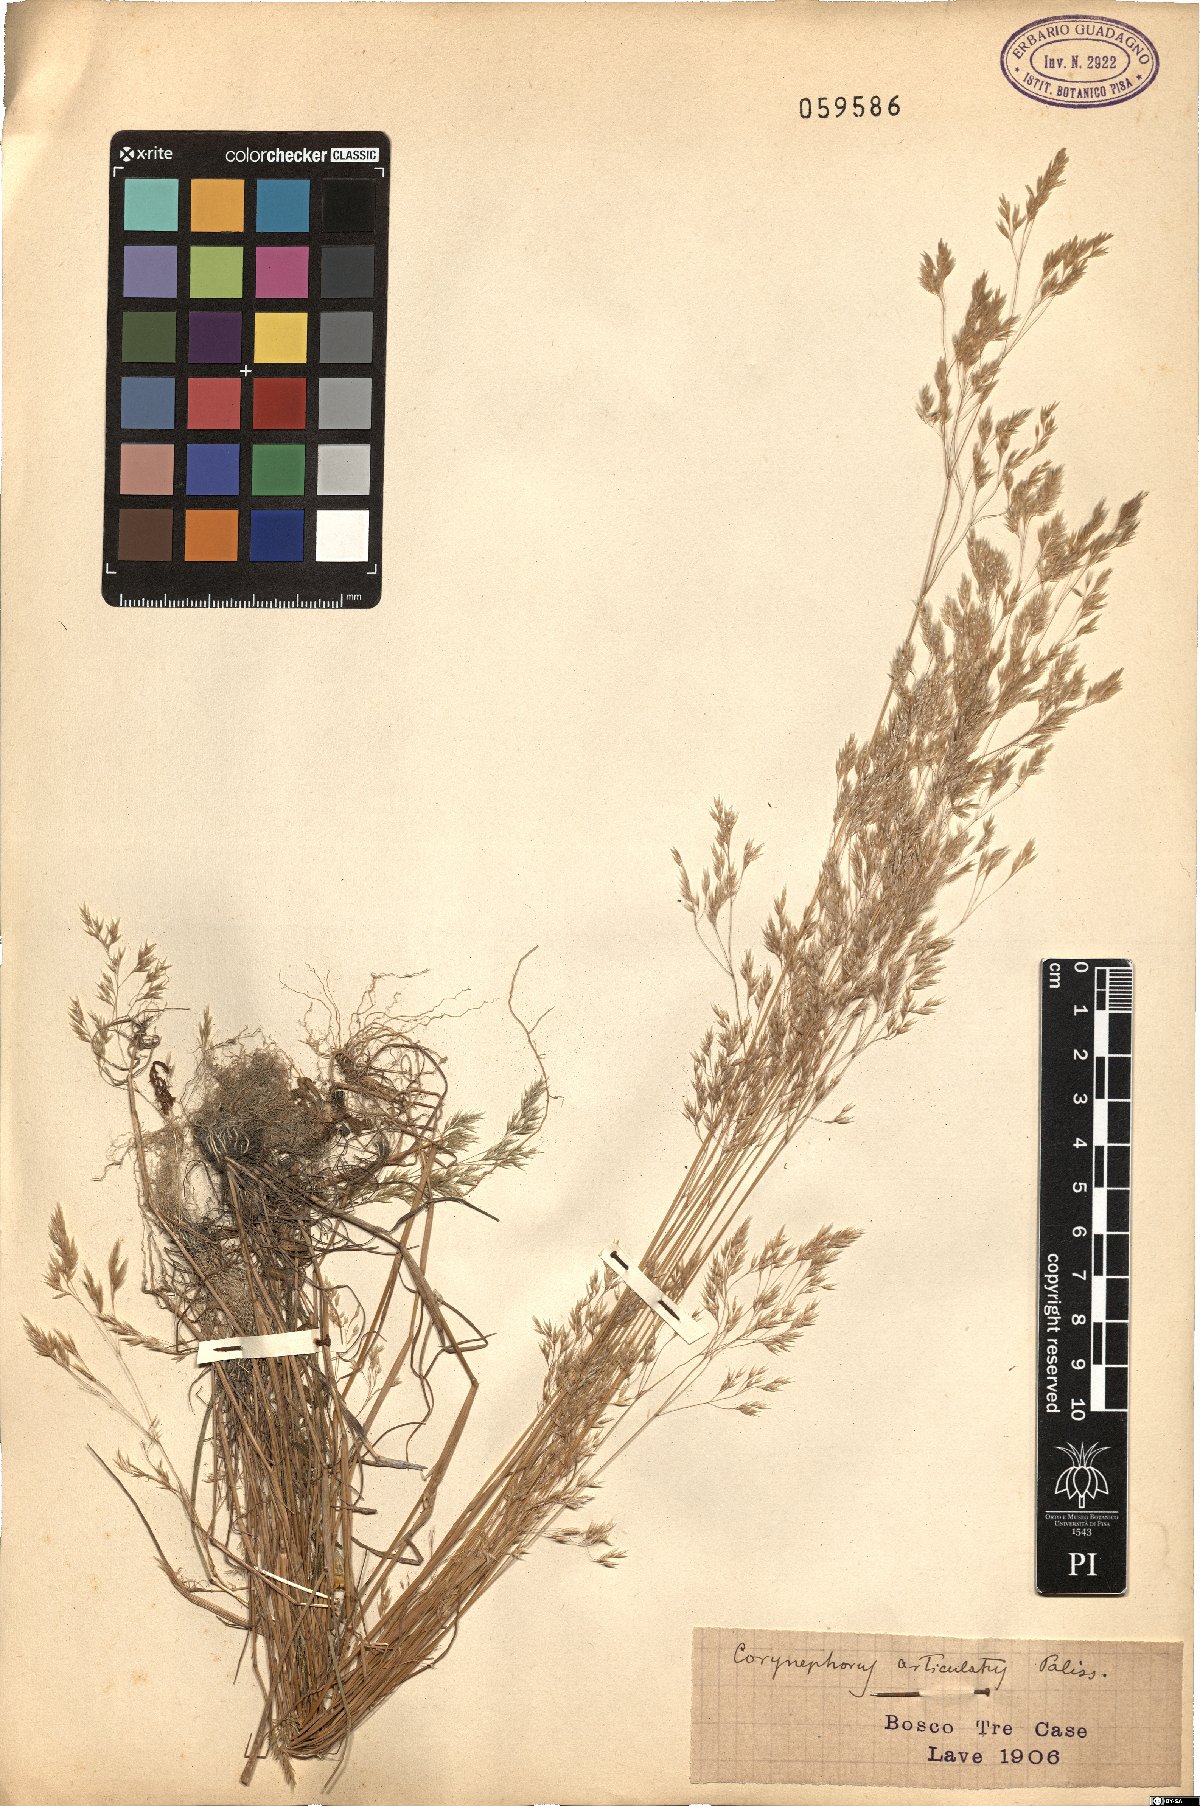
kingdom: Plantae
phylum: Tracheophyta
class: Liliopsida
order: Poales
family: Poaceae
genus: Corynephorus
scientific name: Corynephorus articulatus
